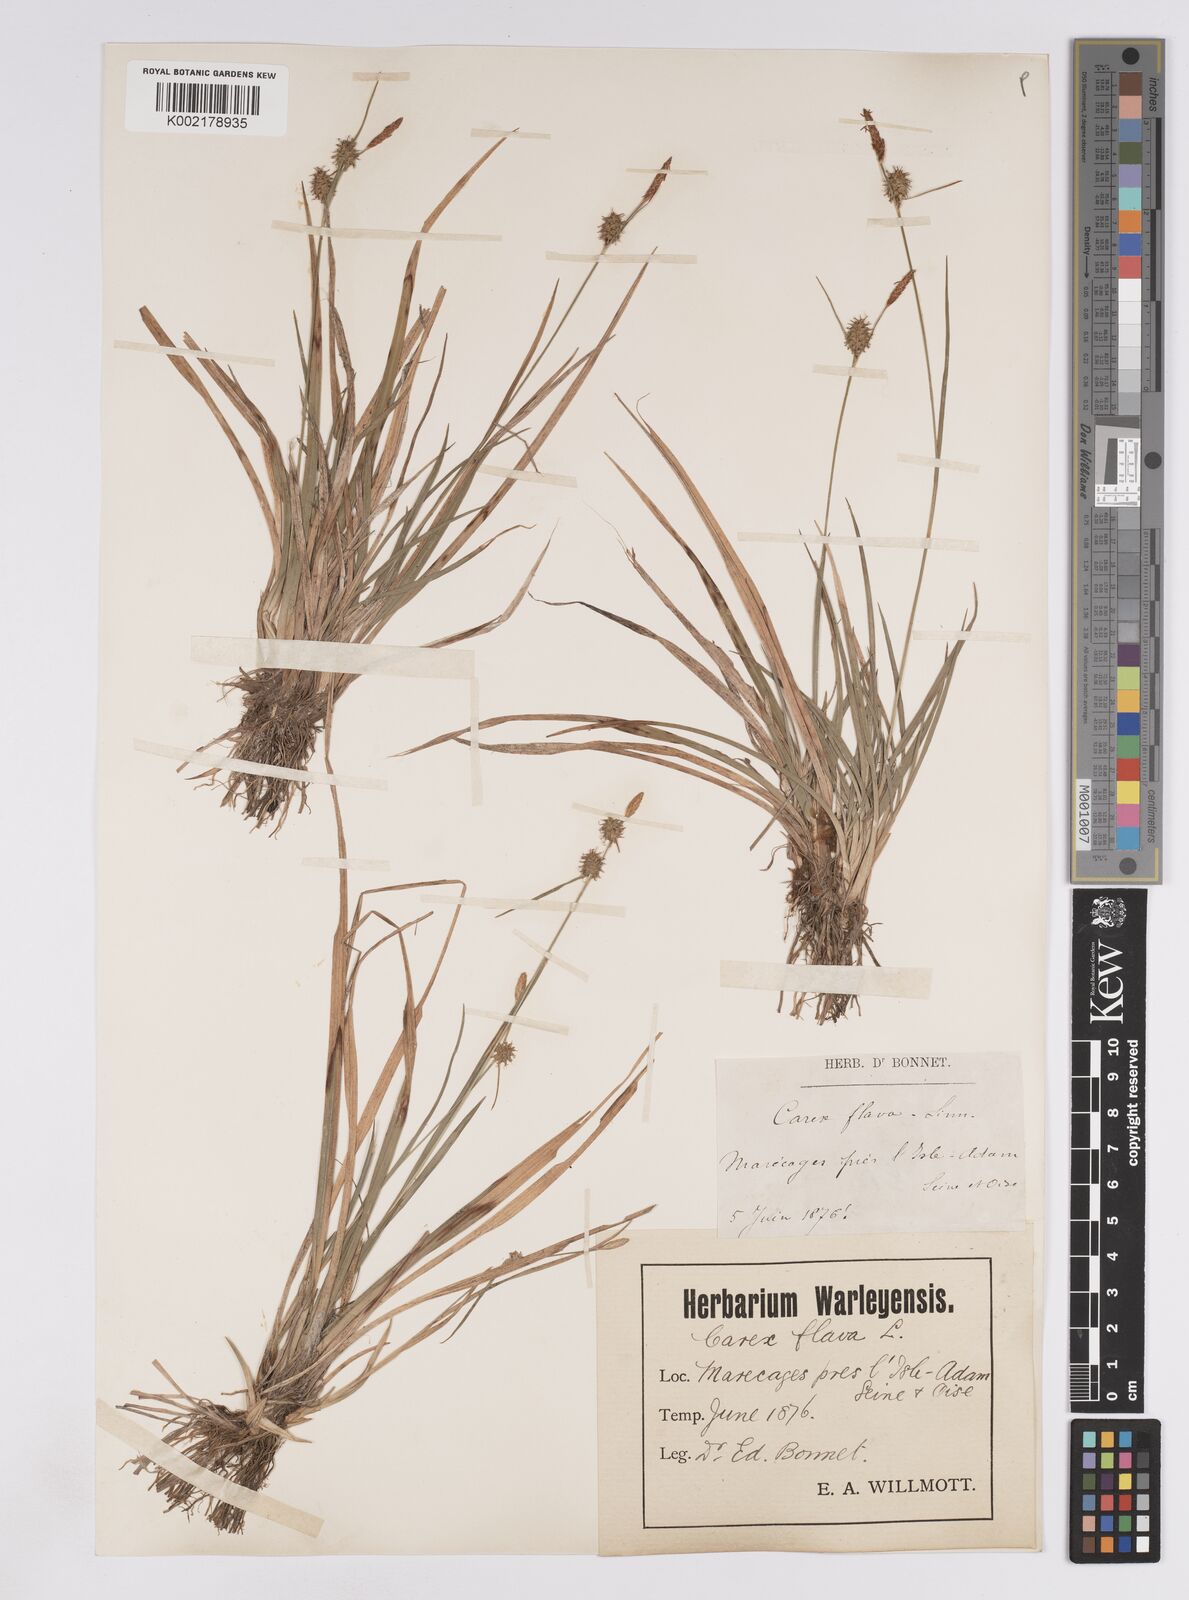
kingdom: Plantae
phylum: Tracheophyta
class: Liliopsida
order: Poales
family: Cyperaceae
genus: Carex
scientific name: Carex lepidocarpa
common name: Long-stalked yellow-sedge
